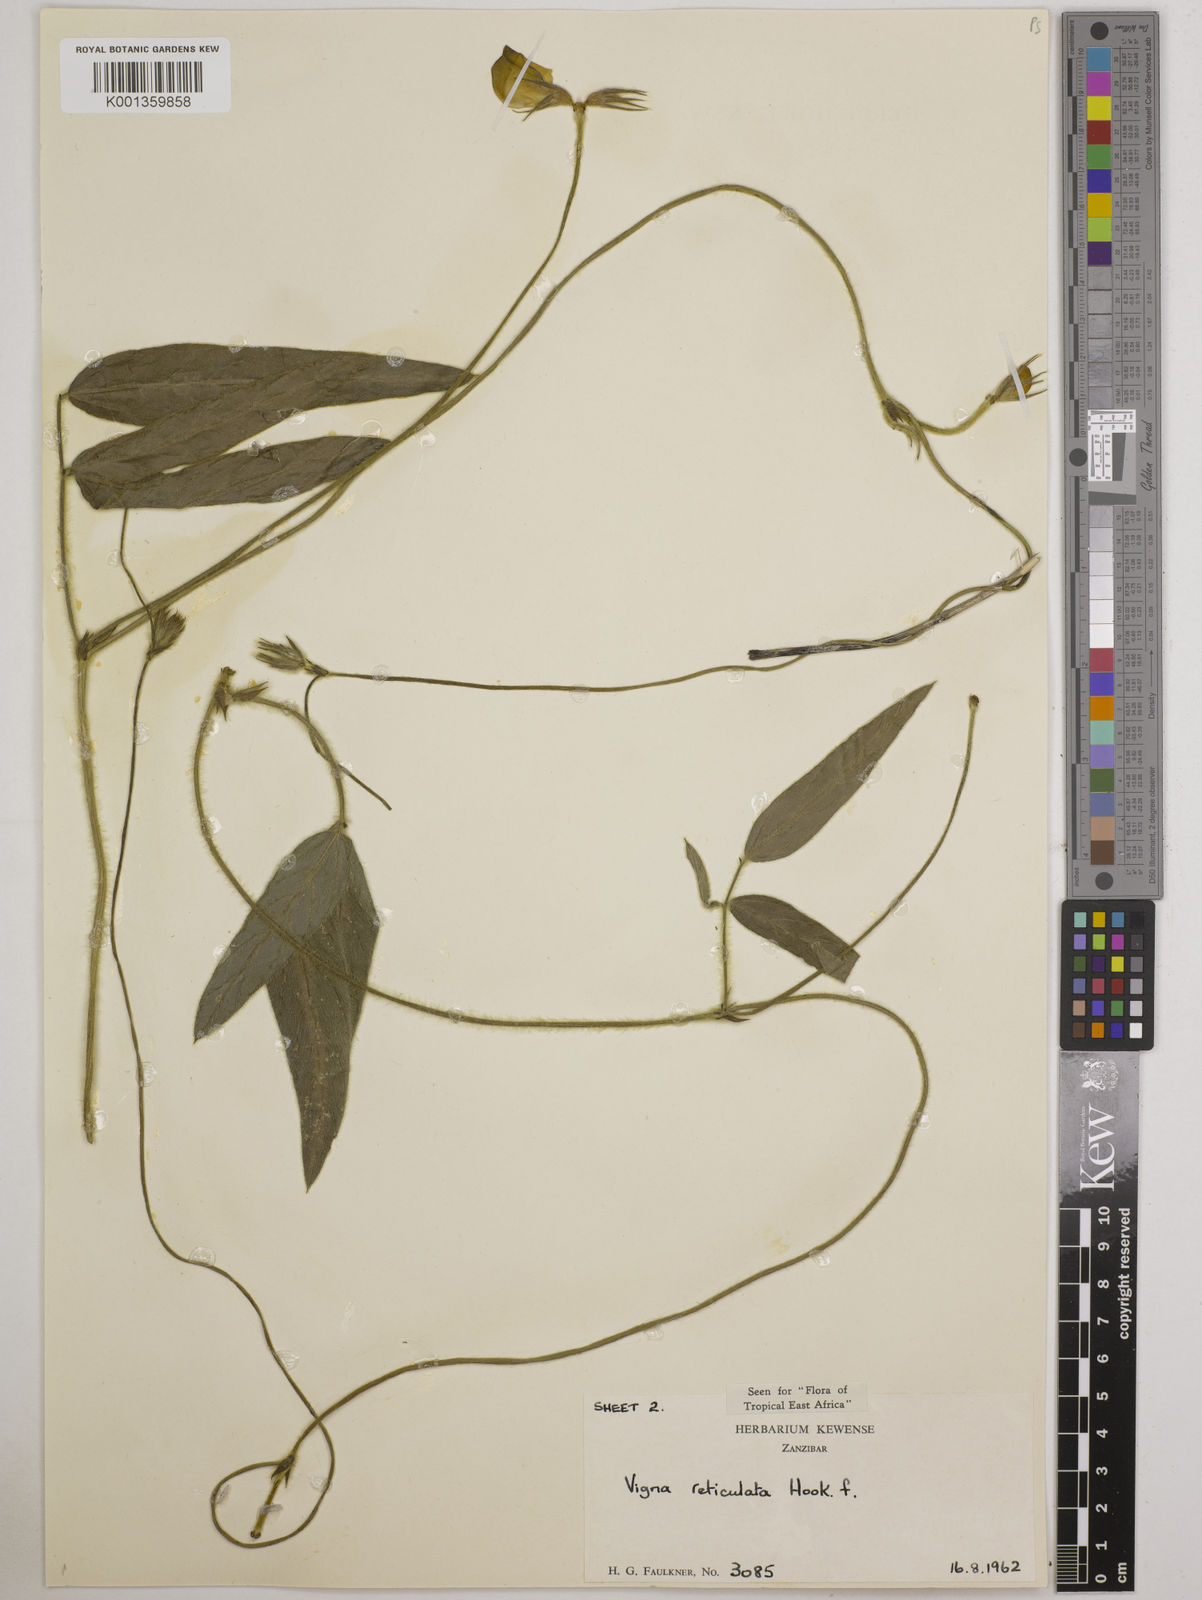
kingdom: Plantae
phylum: Tracheophyta
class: Magnoliopsida
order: Fabales
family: Fabaceae
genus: Vigna
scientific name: Vigna reticulata
